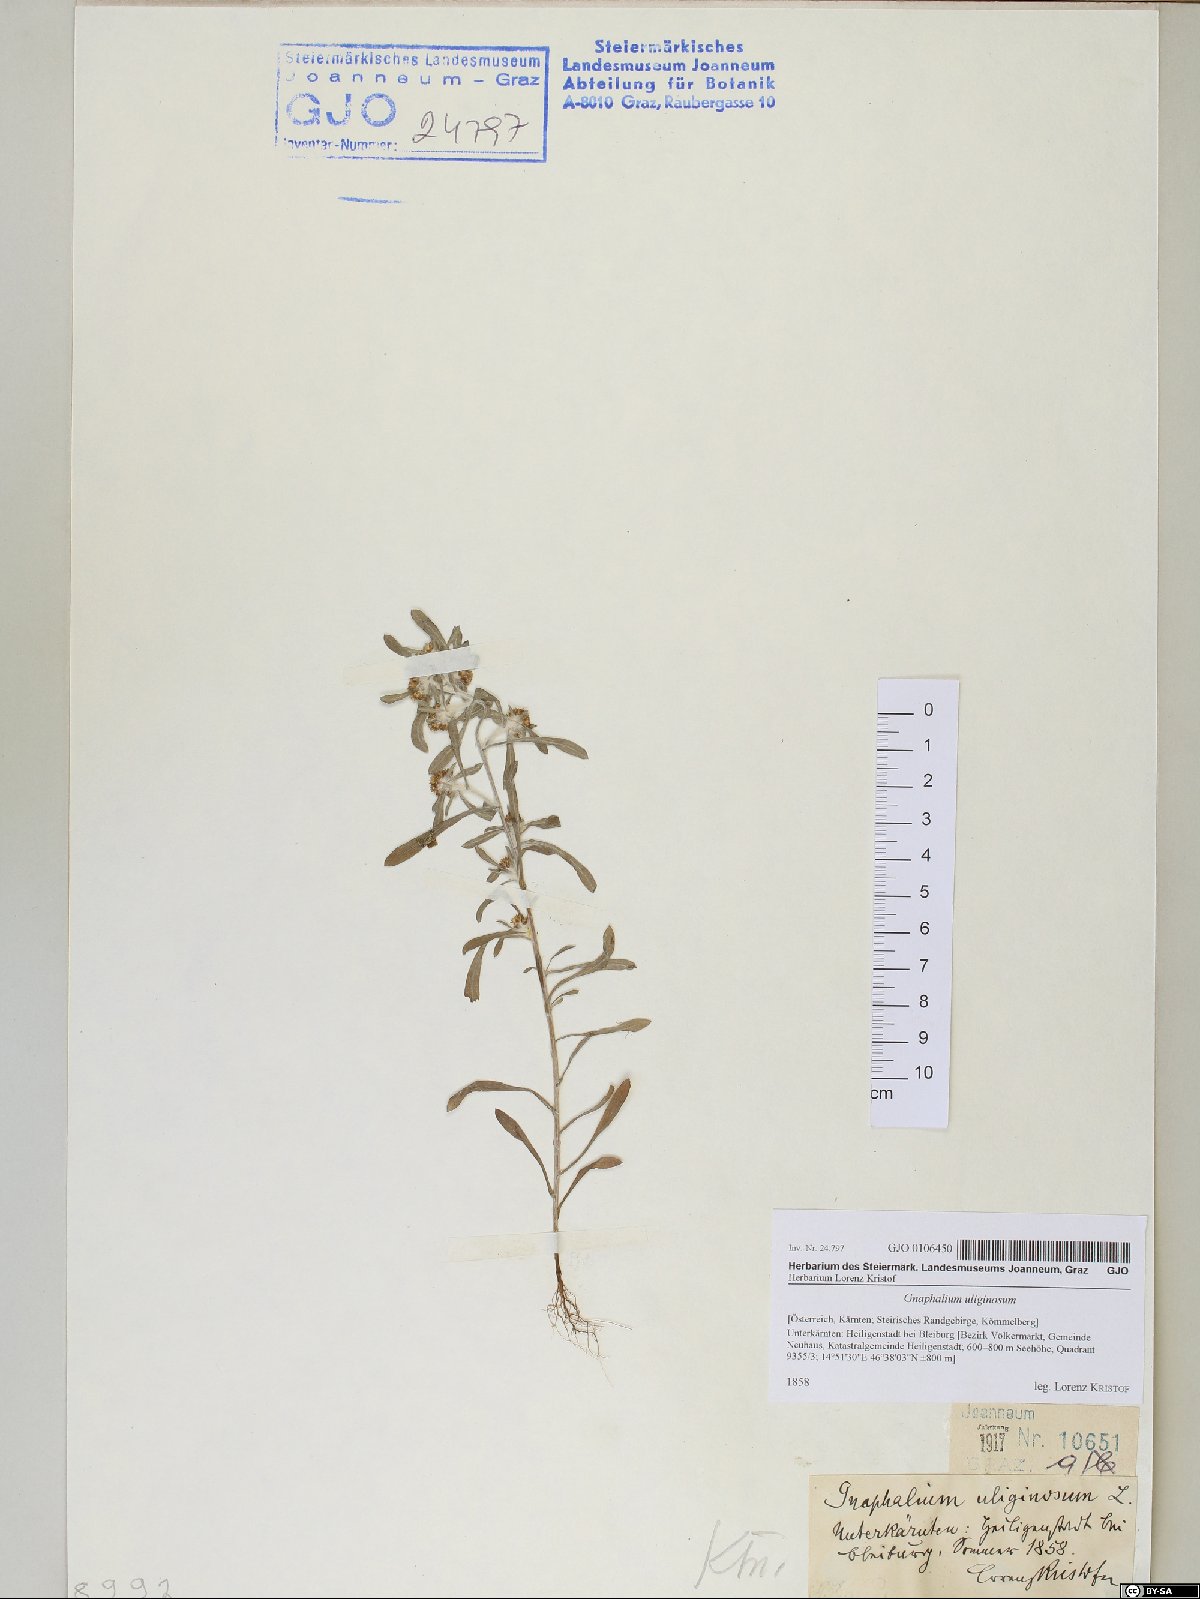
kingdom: Plantae
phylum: Tracheophyta
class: Magnoliopsida
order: Asterales
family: Asteraceae
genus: Gnaphalium
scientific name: Gnaphalium uliginosum
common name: Marsh cudweed
